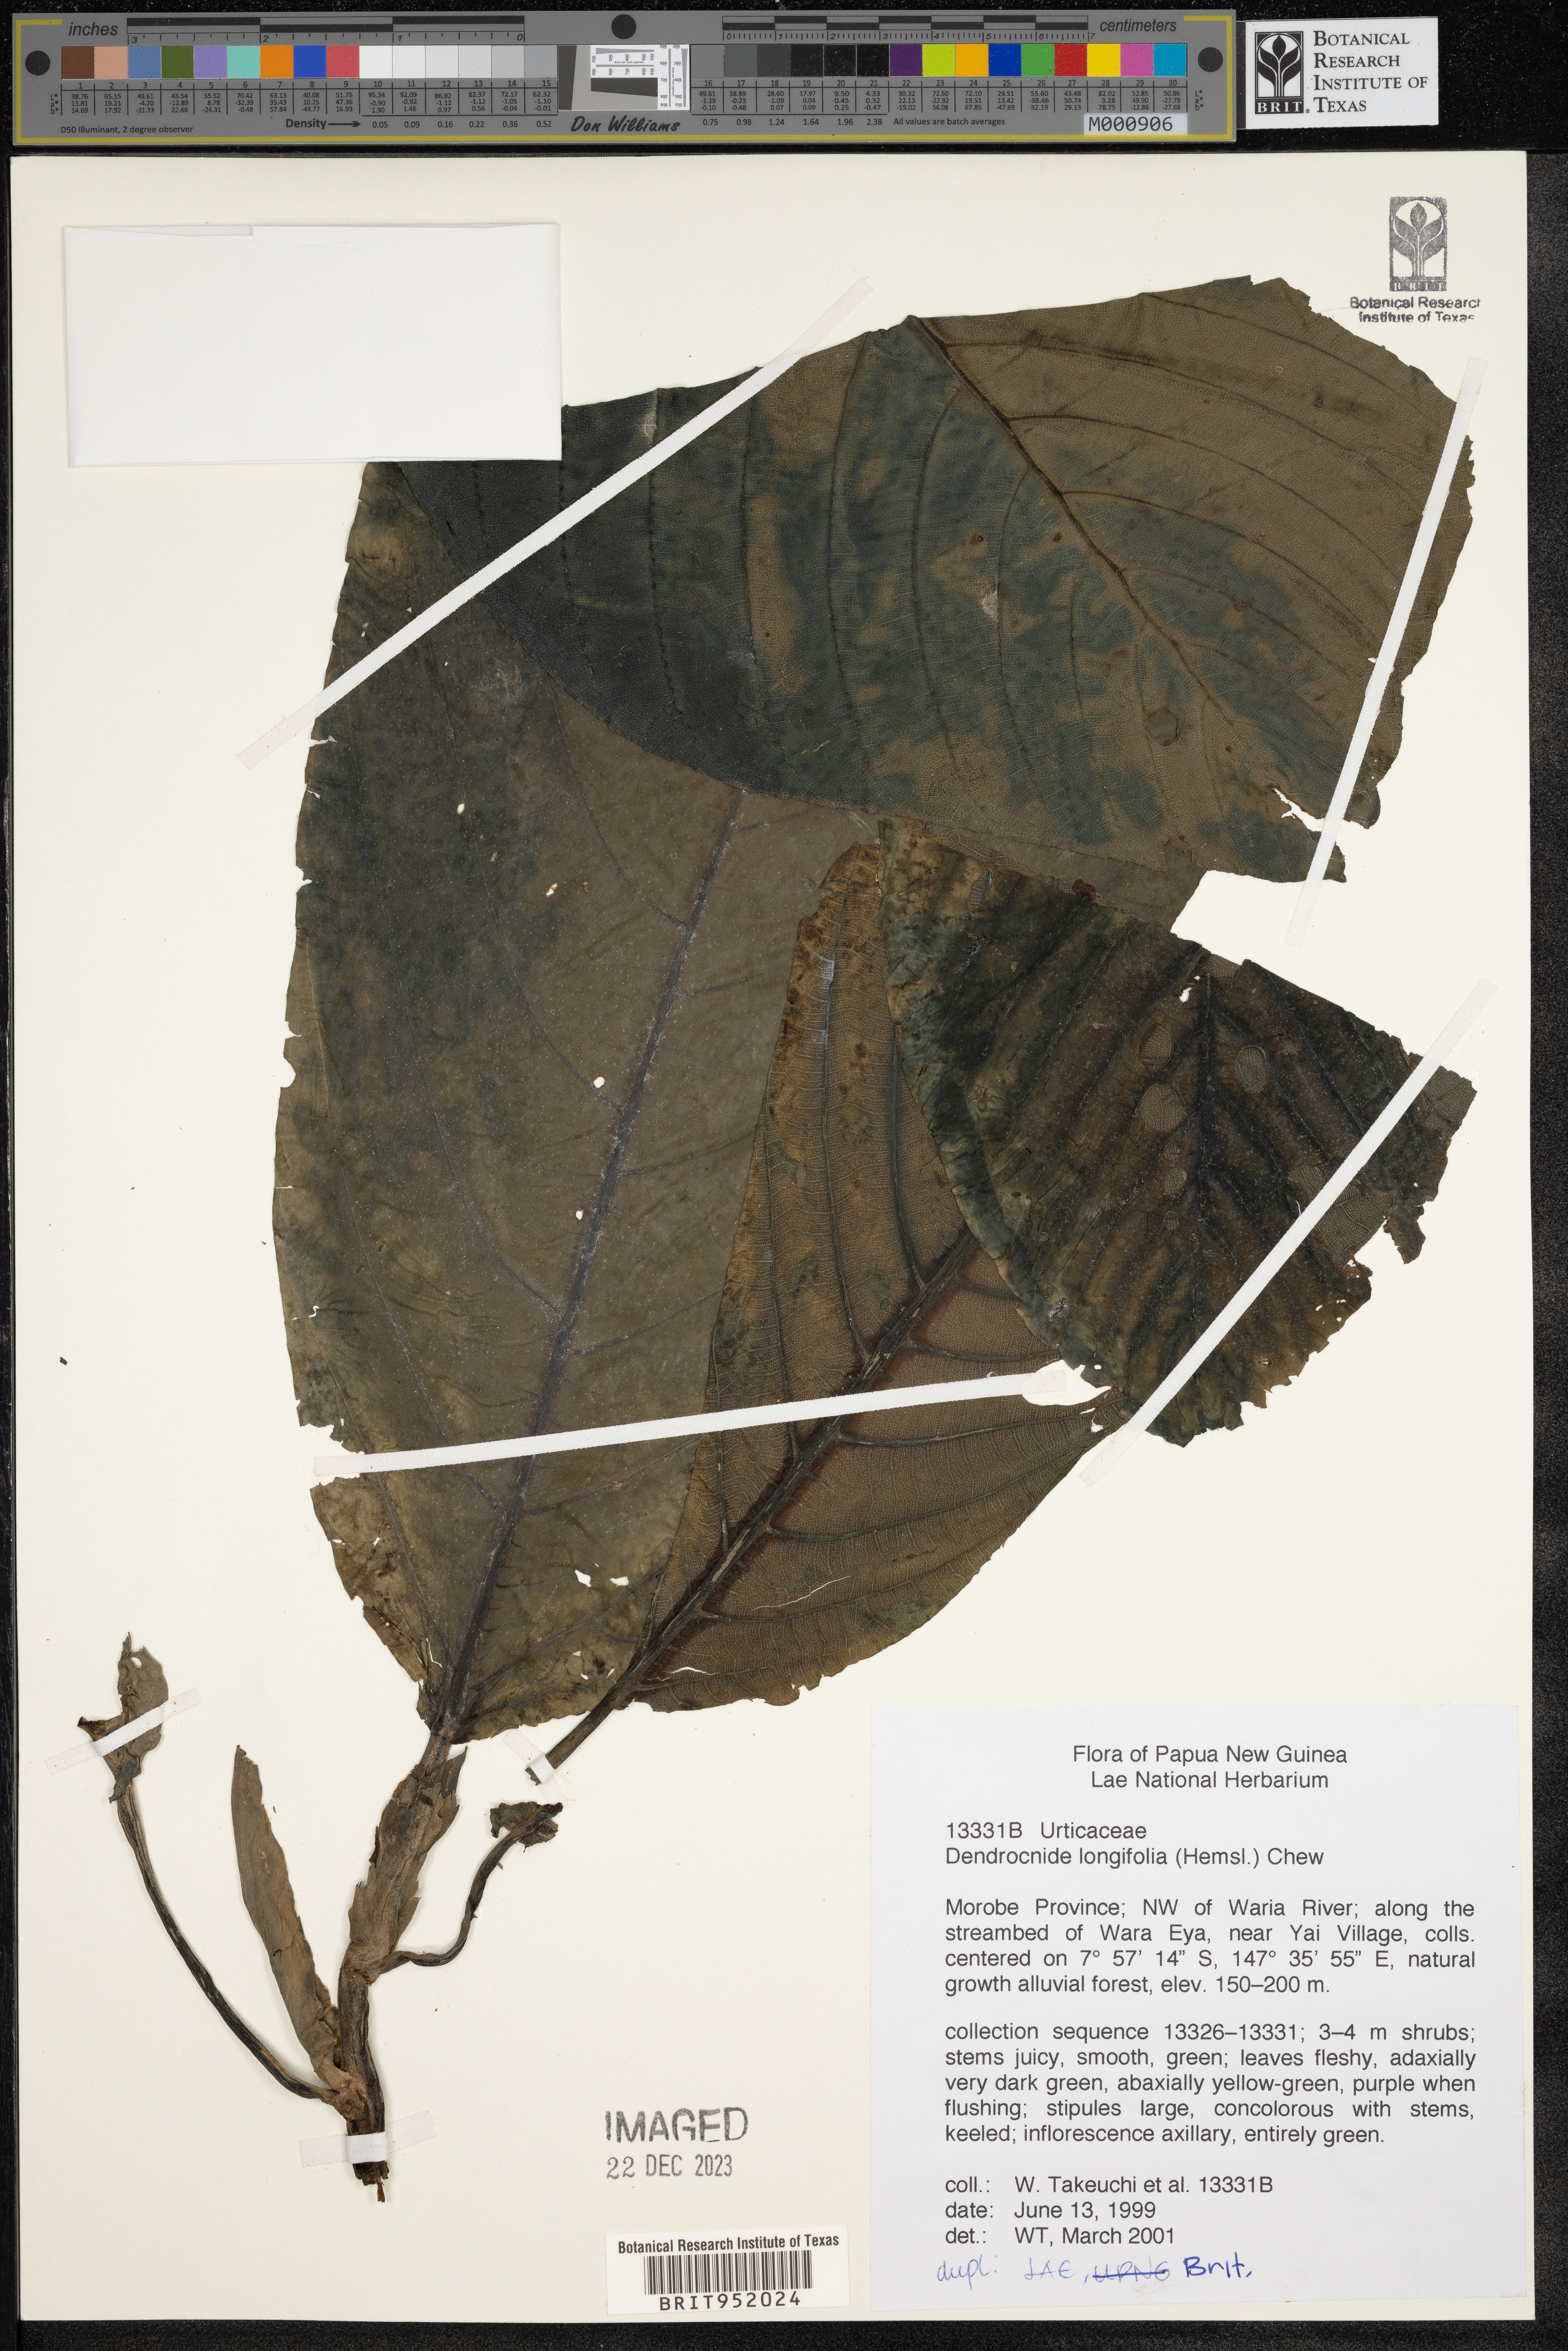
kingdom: Plantae
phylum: Tracheophyta
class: Magnoliopsida
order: Rosales
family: Urticaceae
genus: Dendrocnide
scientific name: Dendrocnide
